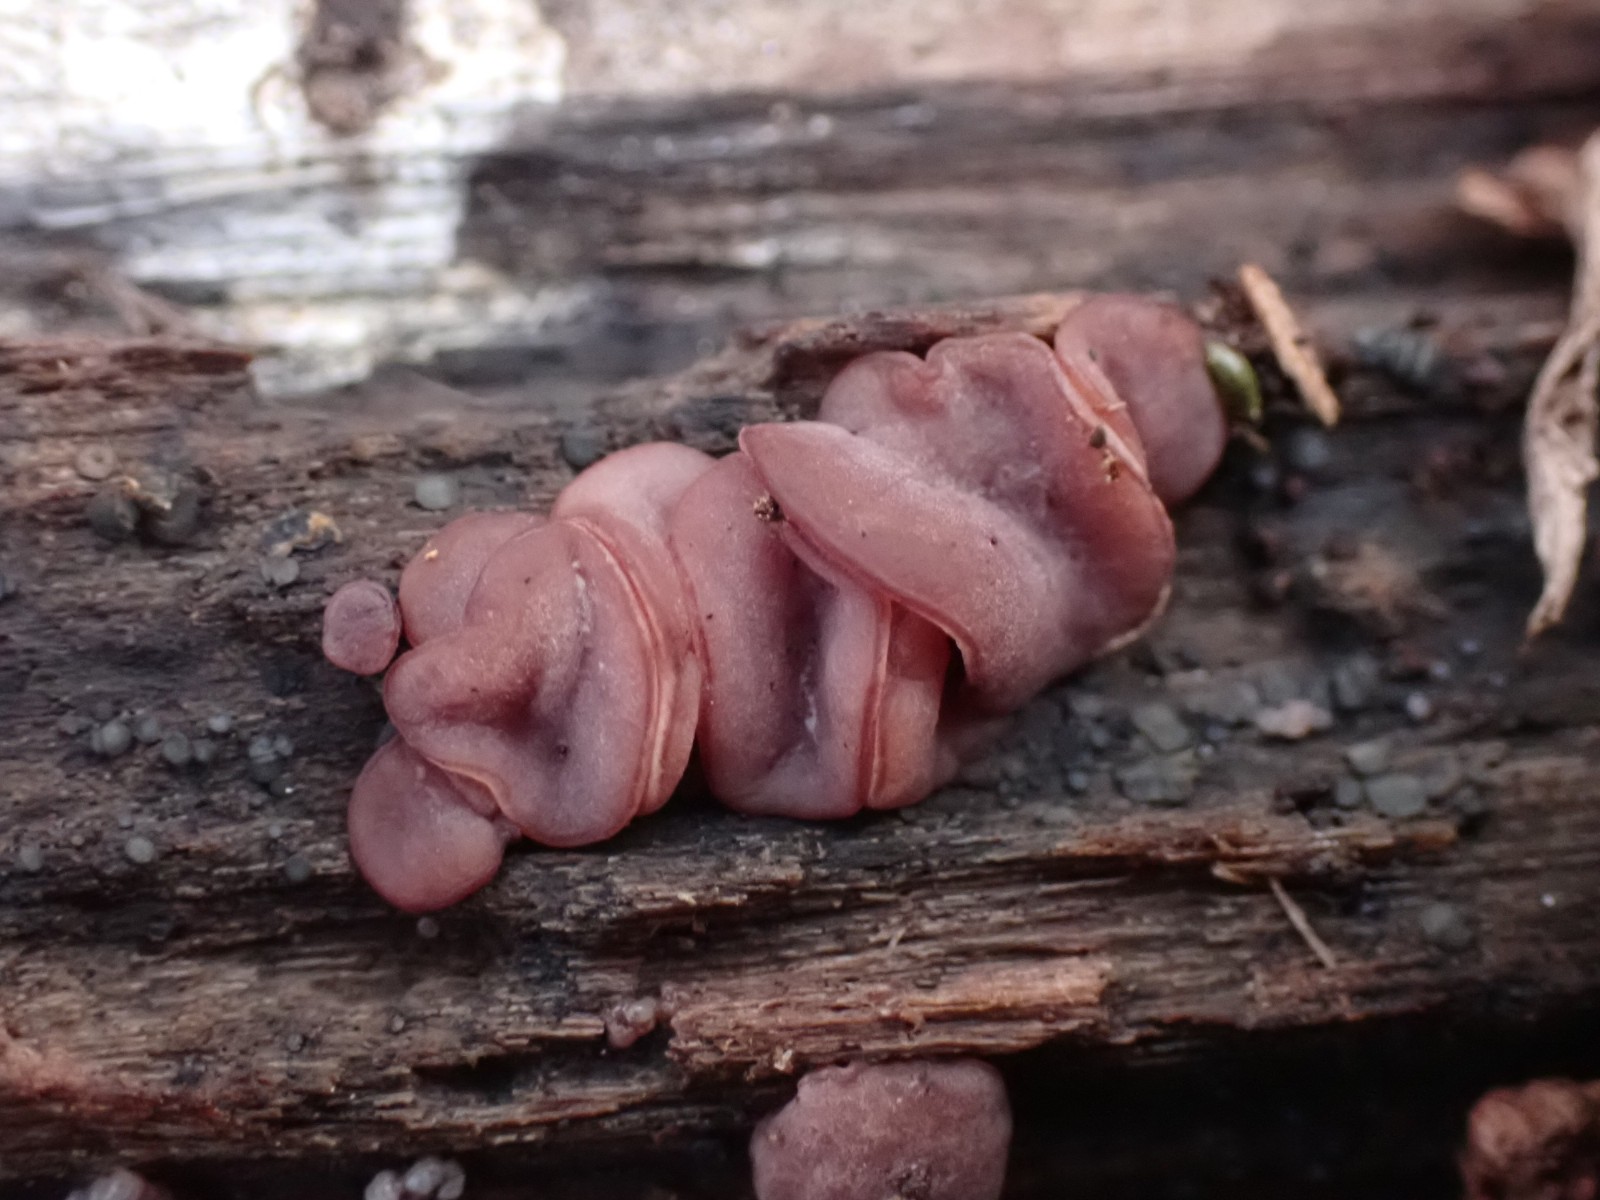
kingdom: Fungi
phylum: Ascomycota
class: Leotiomycetes
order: Helotiales
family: Gelatinodiscaceae
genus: Ascocoryne
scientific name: Ascocoryne sarcoides
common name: rødlilla sejskive
